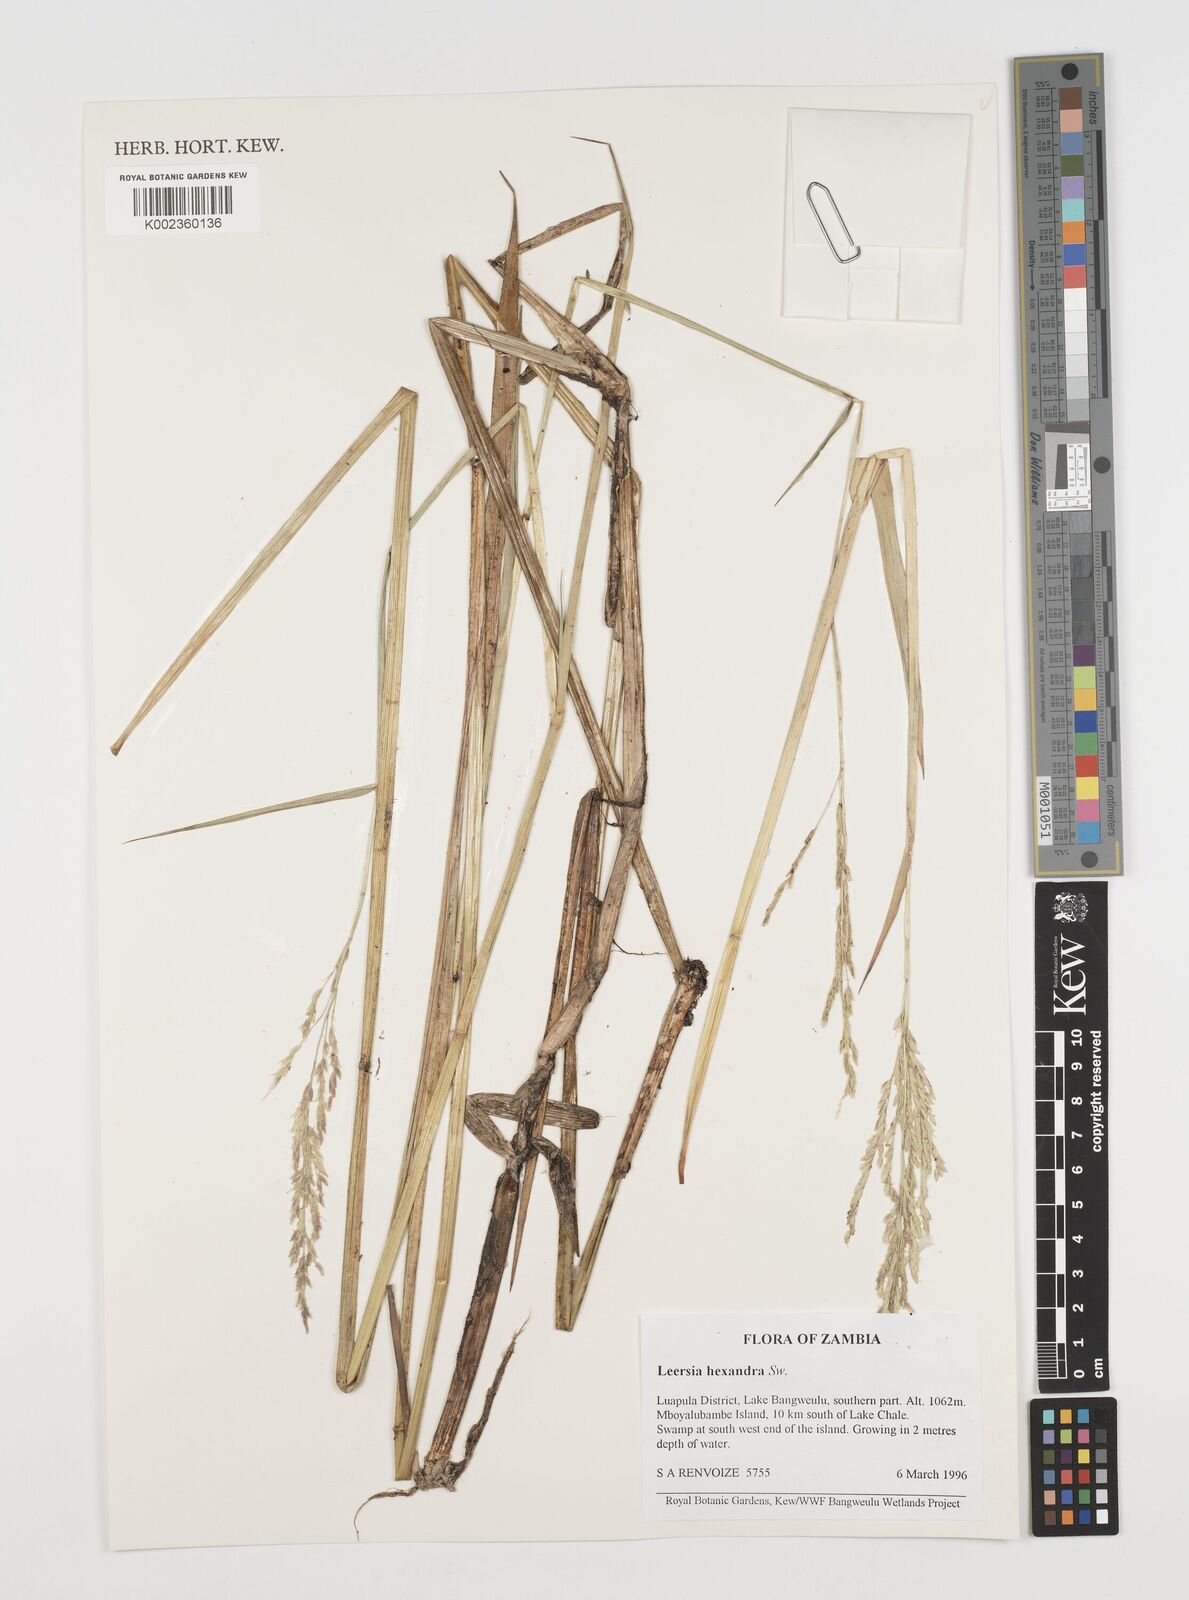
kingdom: Plantae
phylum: Tracheophyta
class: Liliopsida
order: Poales
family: Poaceae
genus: Leersia
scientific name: Leersia hexandra
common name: Southern cut grass
